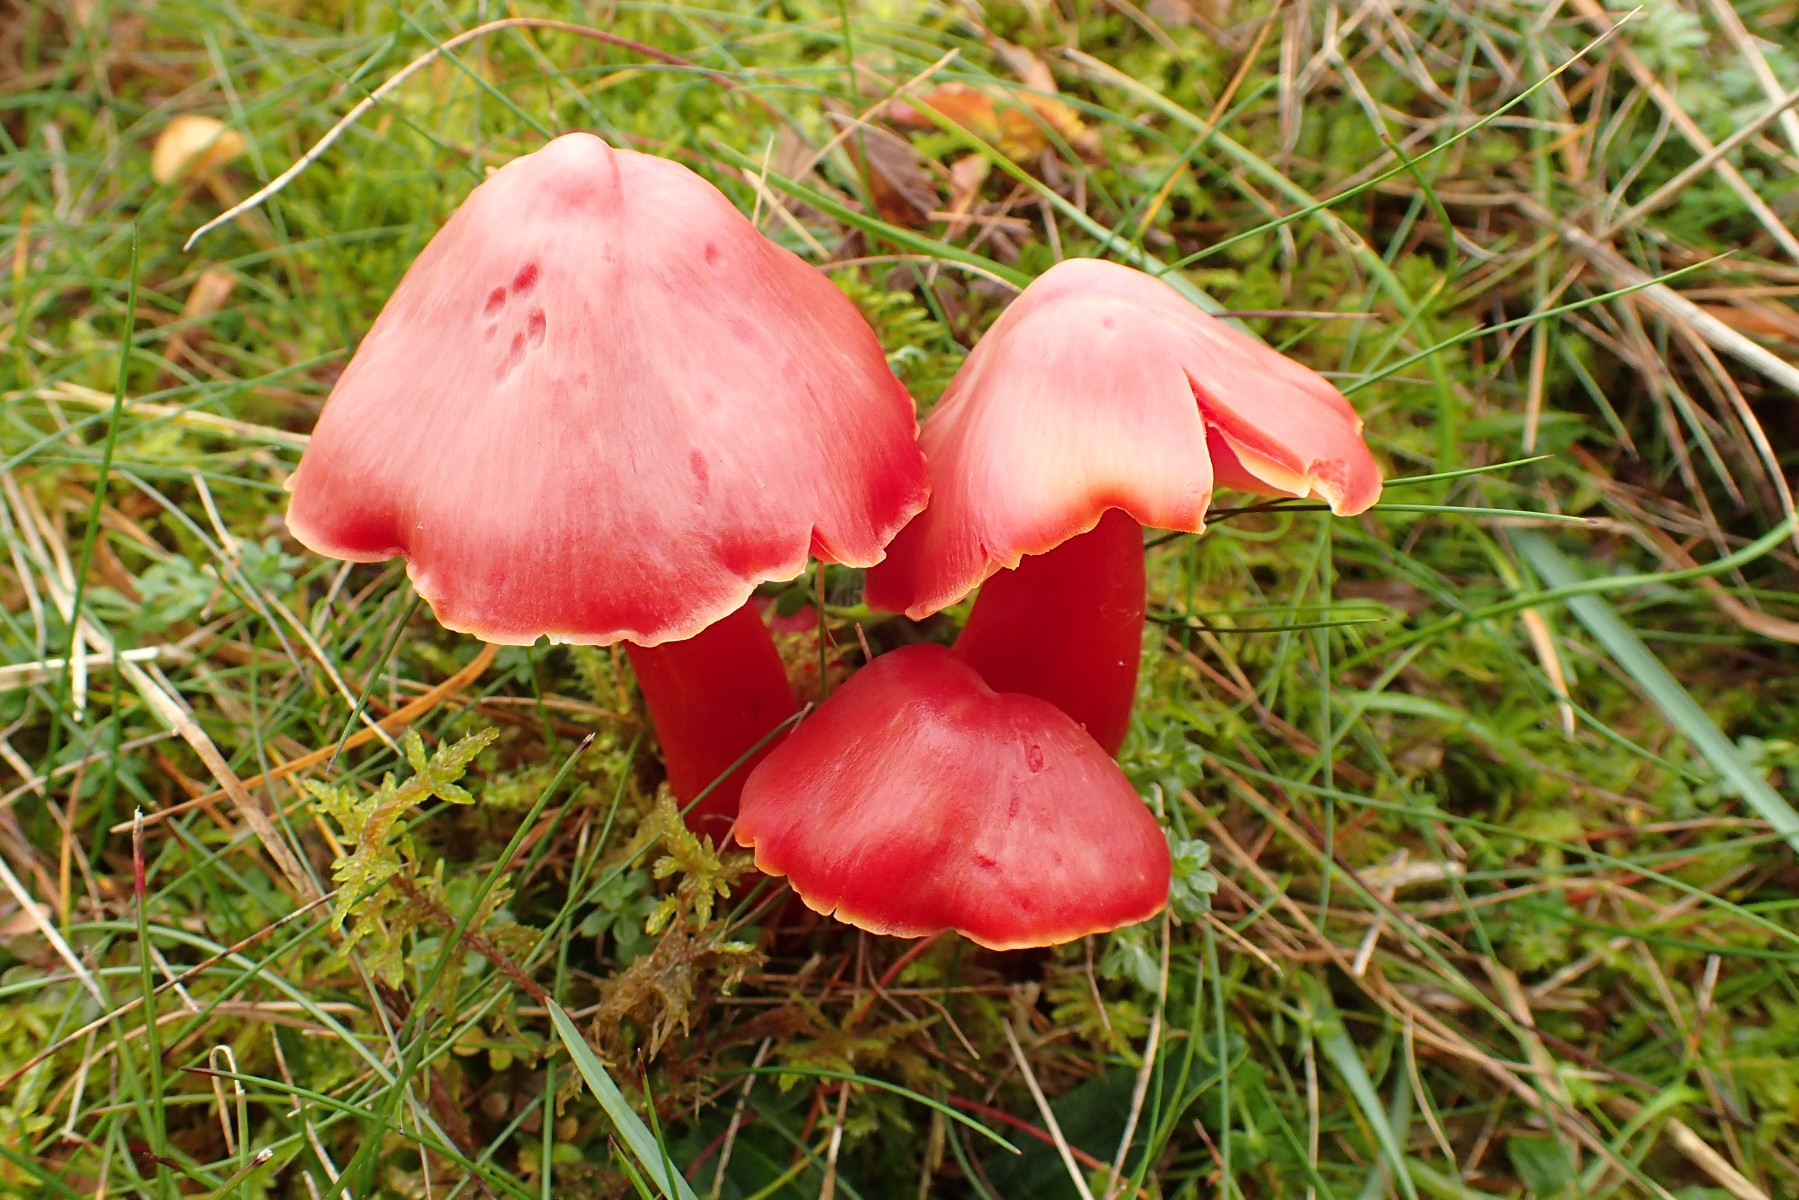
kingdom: Fungi
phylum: Basidiomycota
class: Agaricomycetes
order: Agaricales
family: Hygrophoraceae
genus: Hygrocybe
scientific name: Hygrocybe splendidissima
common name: knaldrød vokshat
